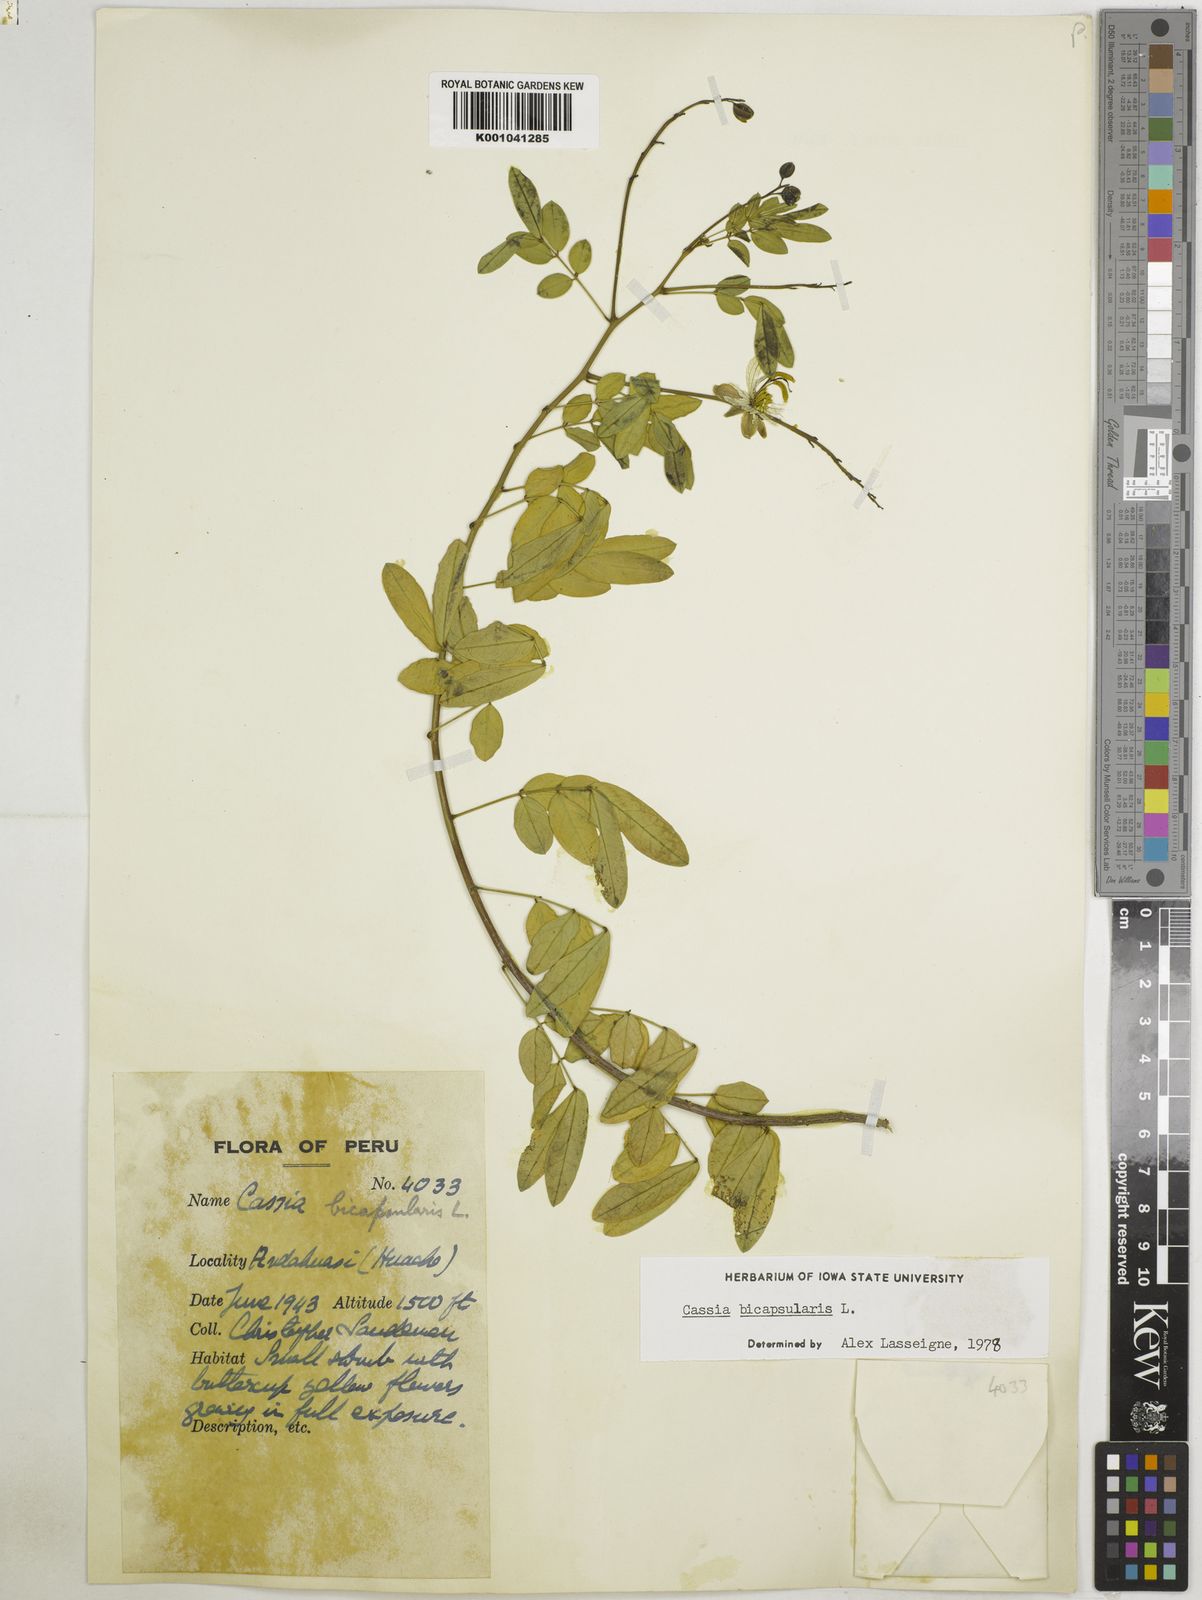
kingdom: Plantae
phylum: Tracheophyta
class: Magnoliopsida
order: Fabales
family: Fabaceae
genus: Senna
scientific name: Senna bicapsularis
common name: Christmasbush
